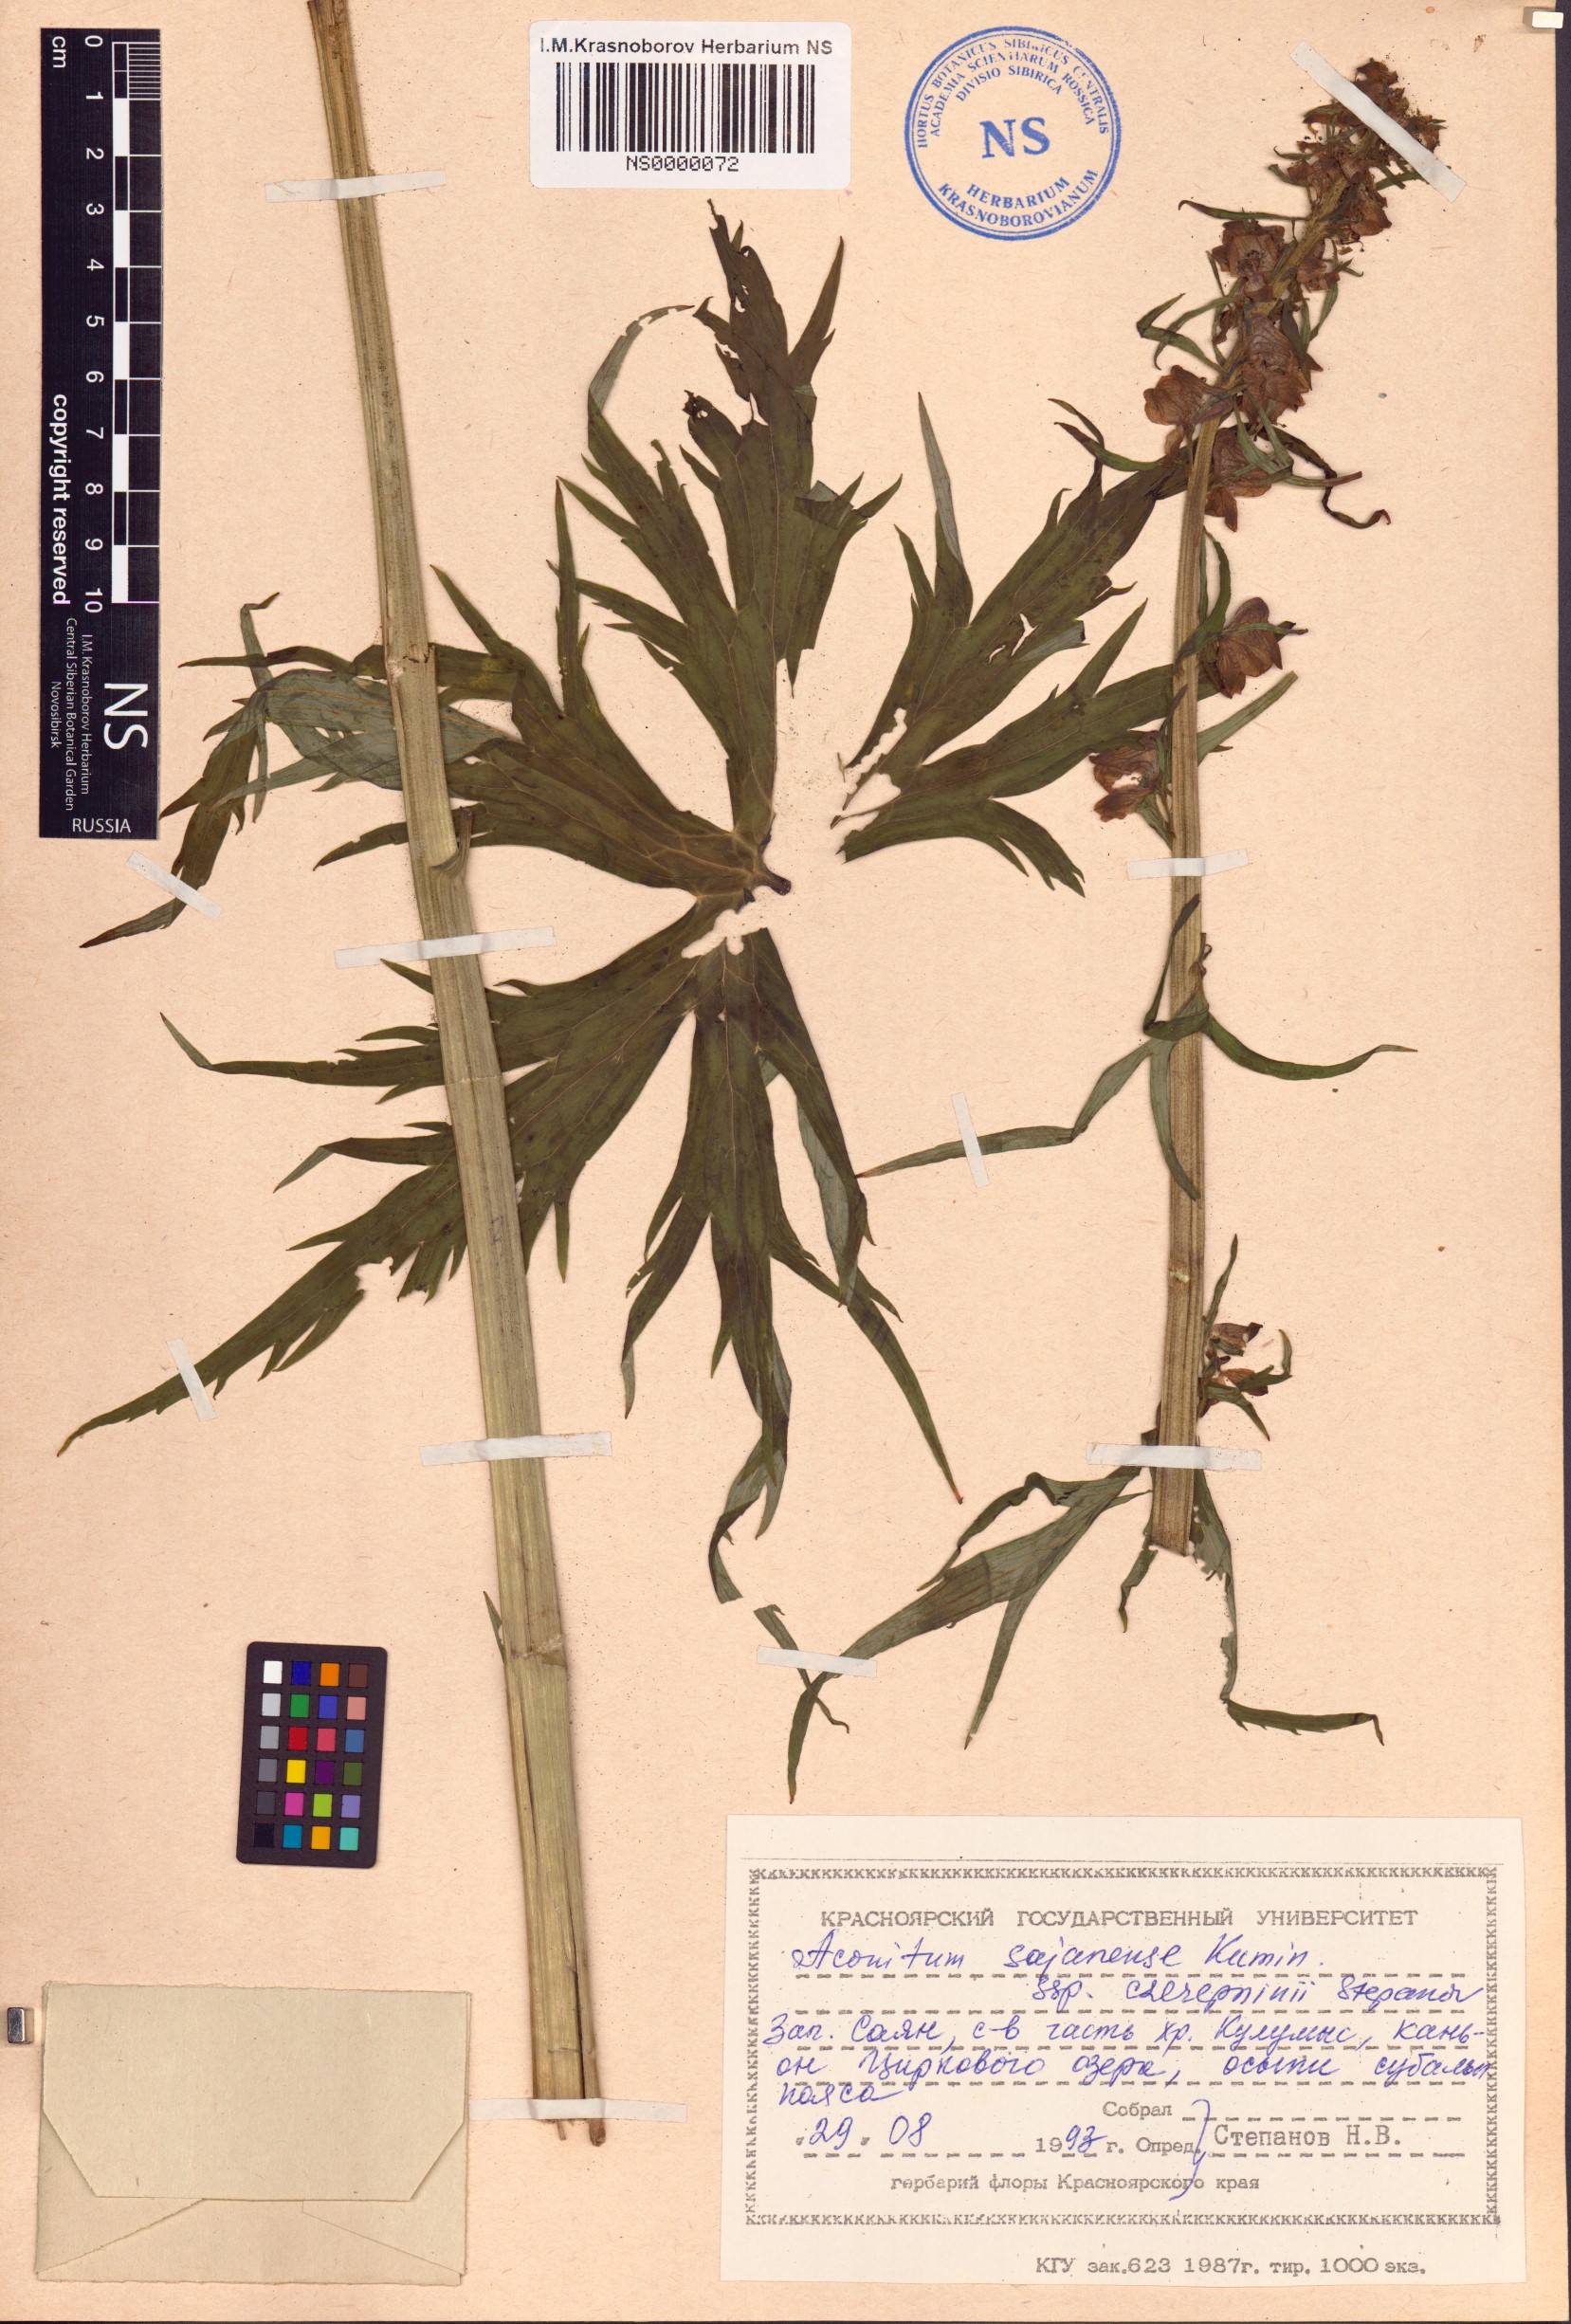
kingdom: Plantae
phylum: Tracheophyta
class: Magnoliopsida
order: Ranunculales
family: Ranunculaceae
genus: Aconitum
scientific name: Aconitum sajanense
